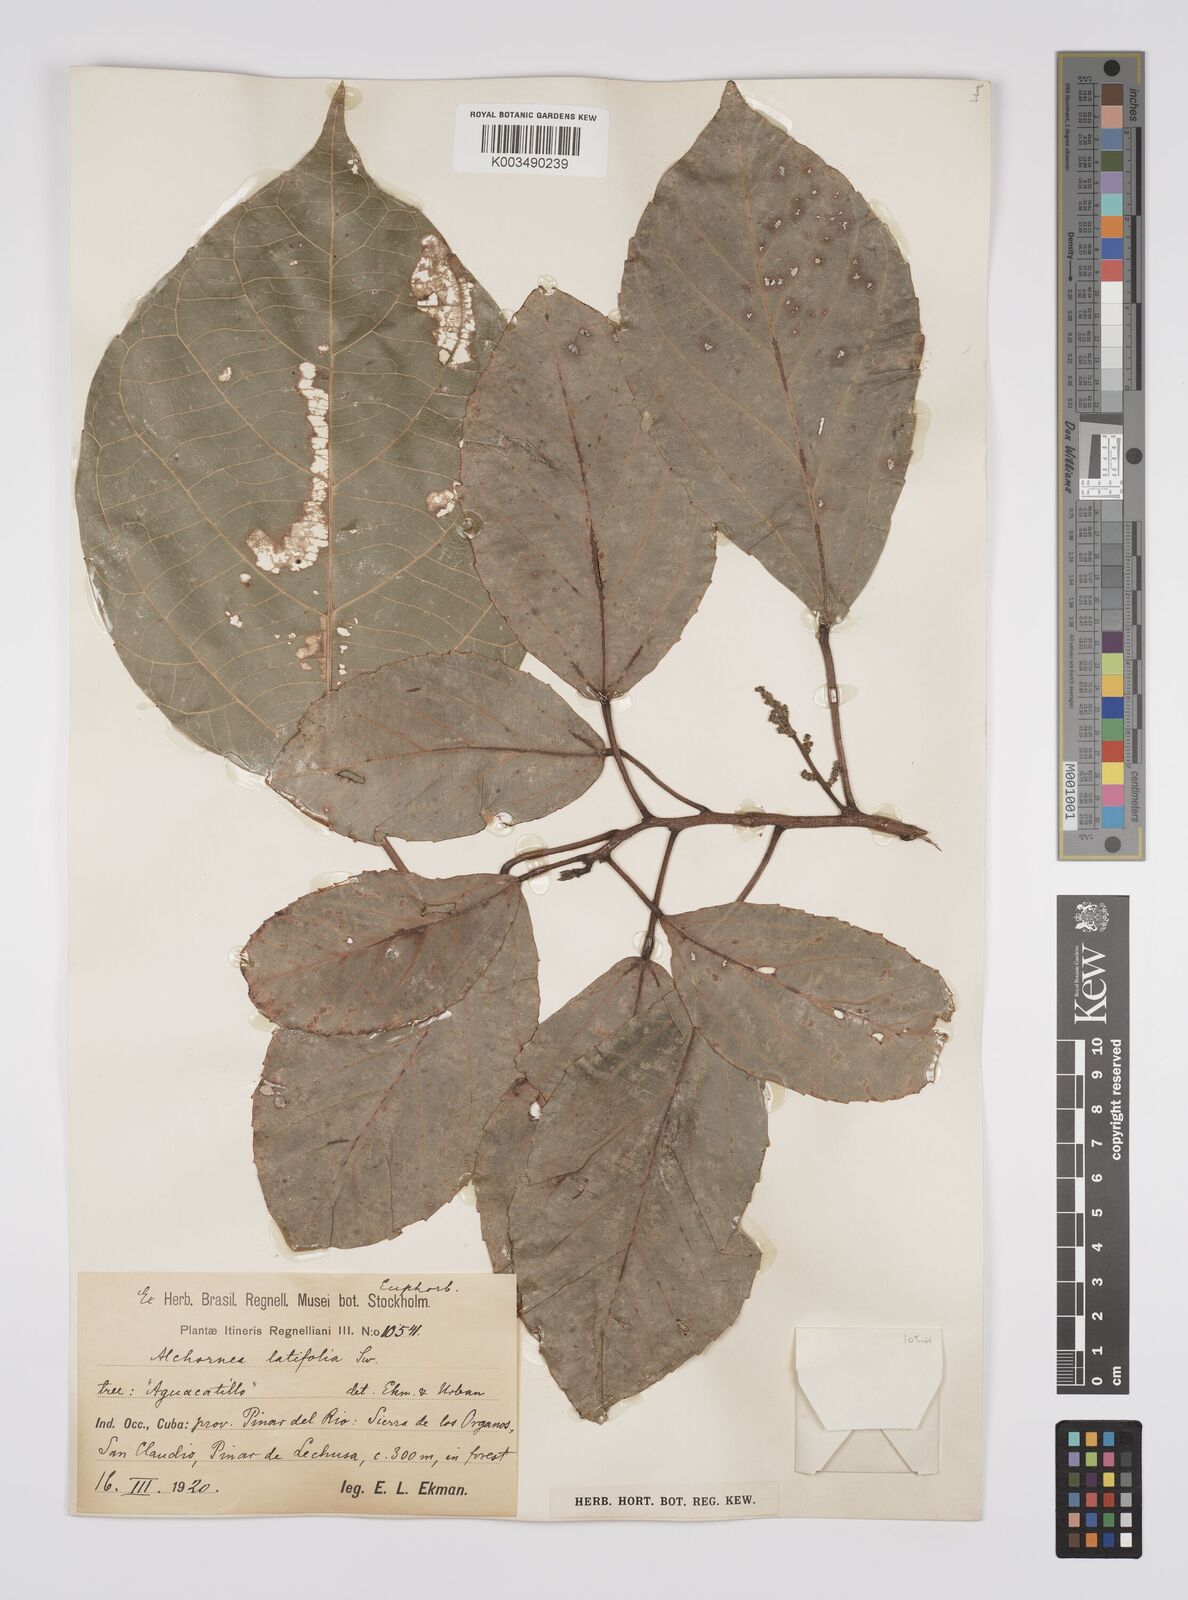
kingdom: Plantae
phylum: Tracheophyta
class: Magnoliopsida
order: Malpighiales
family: Euphorbiaceae
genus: Alchornea
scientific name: Alchornea latifolia
